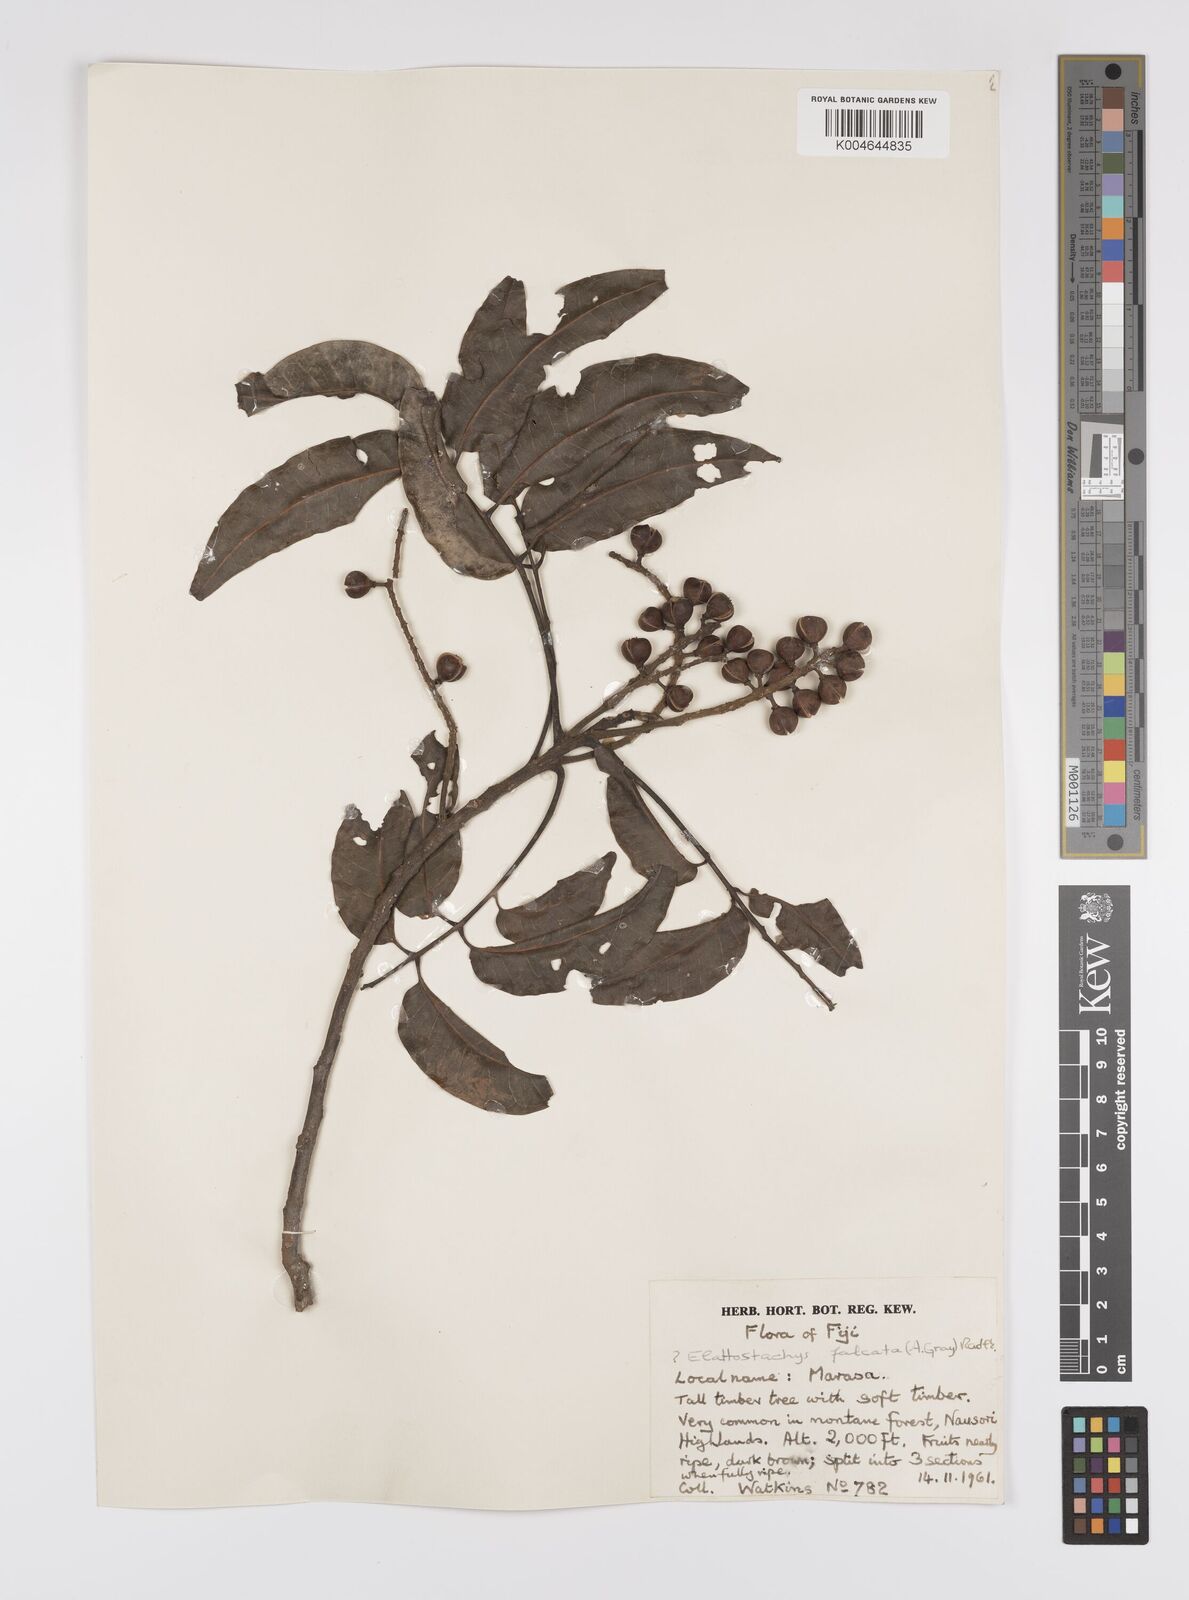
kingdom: Plantae
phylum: Tracheophyta
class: Magnoliopsida
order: Sapindales
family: Sapindaceae
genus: Elattostachys
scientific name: Elattostachys apetala
